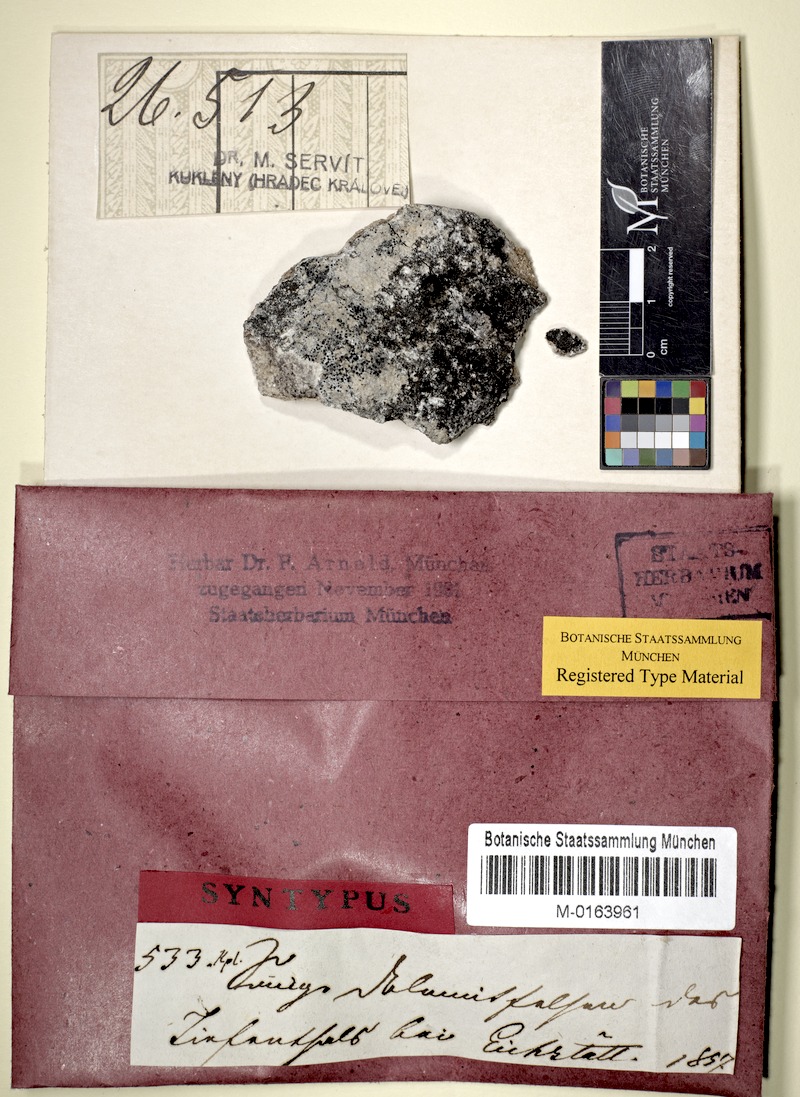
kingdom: Fungi
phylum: Ascomycota
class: Eurotiomycetes
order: Verrucariales
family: Verrucariaceae
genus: Verrucaria
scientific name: Verrucaria cincta
